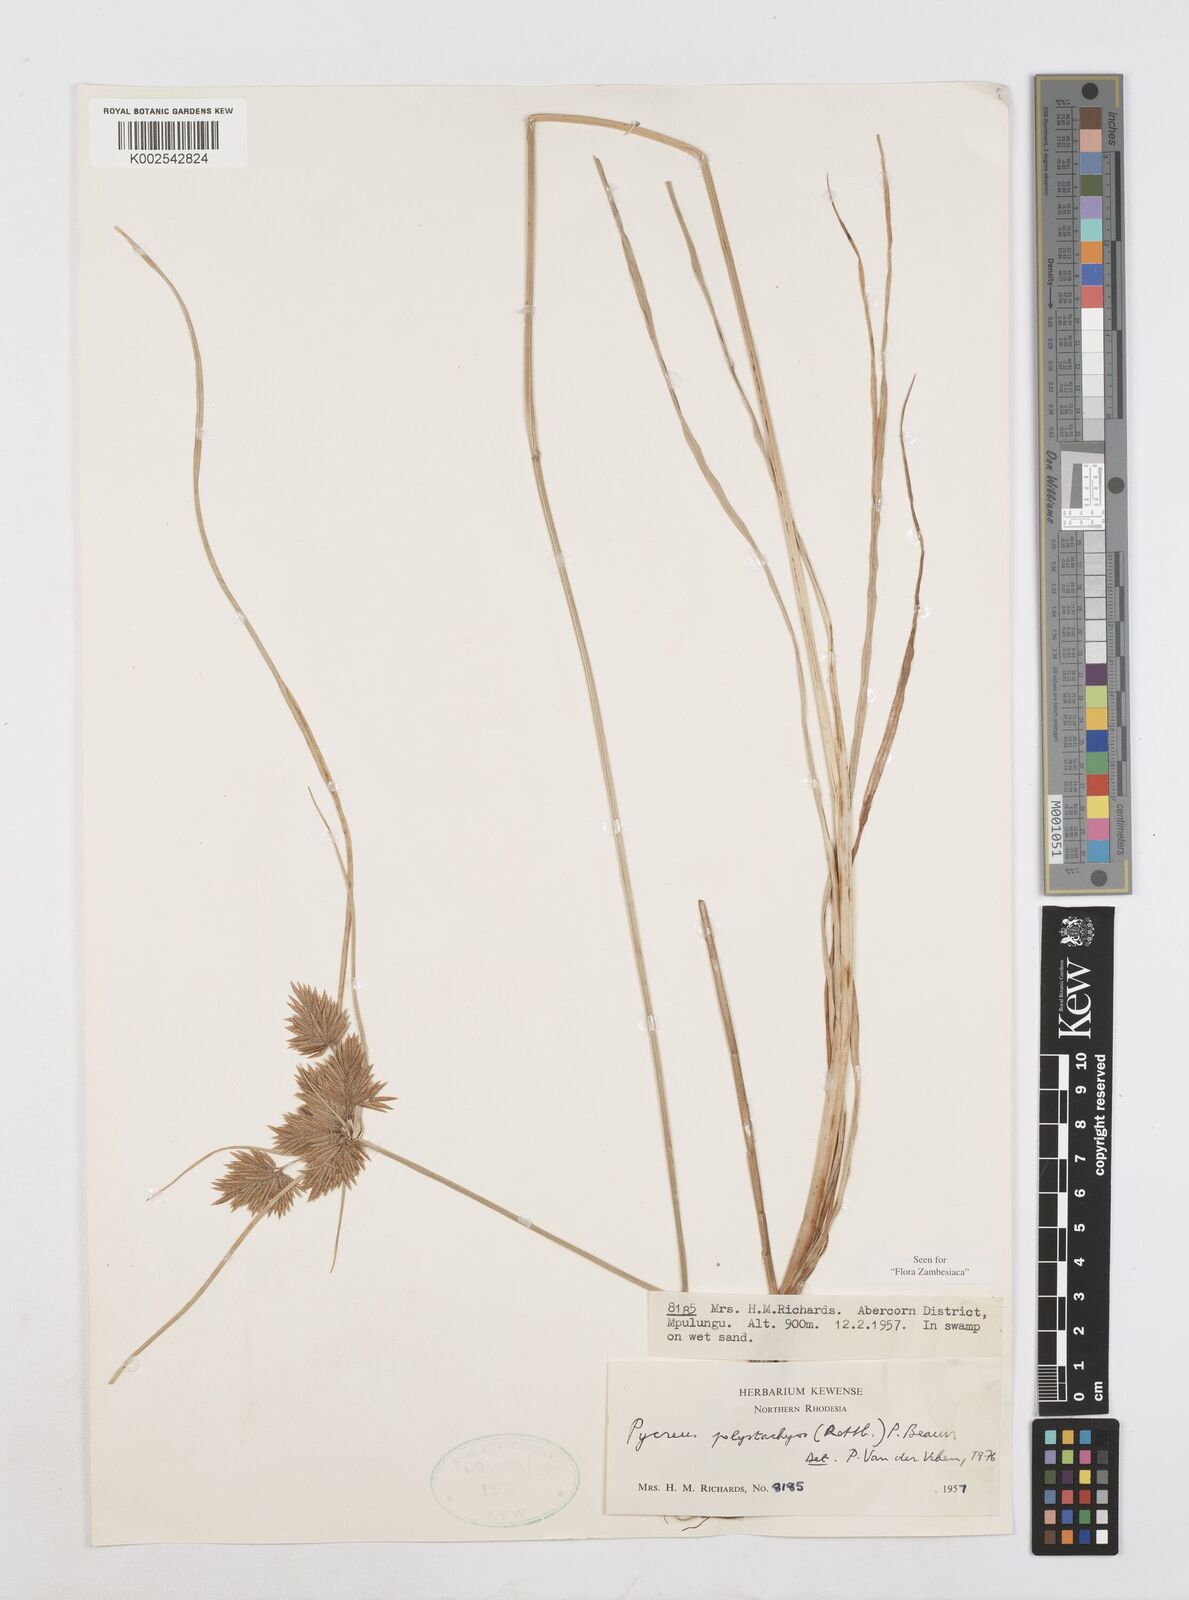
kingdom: Plantae
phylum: Tracheophyta
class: Liliopsida
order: Poales
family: Cyperaceae
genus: Cyperus
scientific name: Cyperus polystachyos
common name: Bunchy flat sedge
